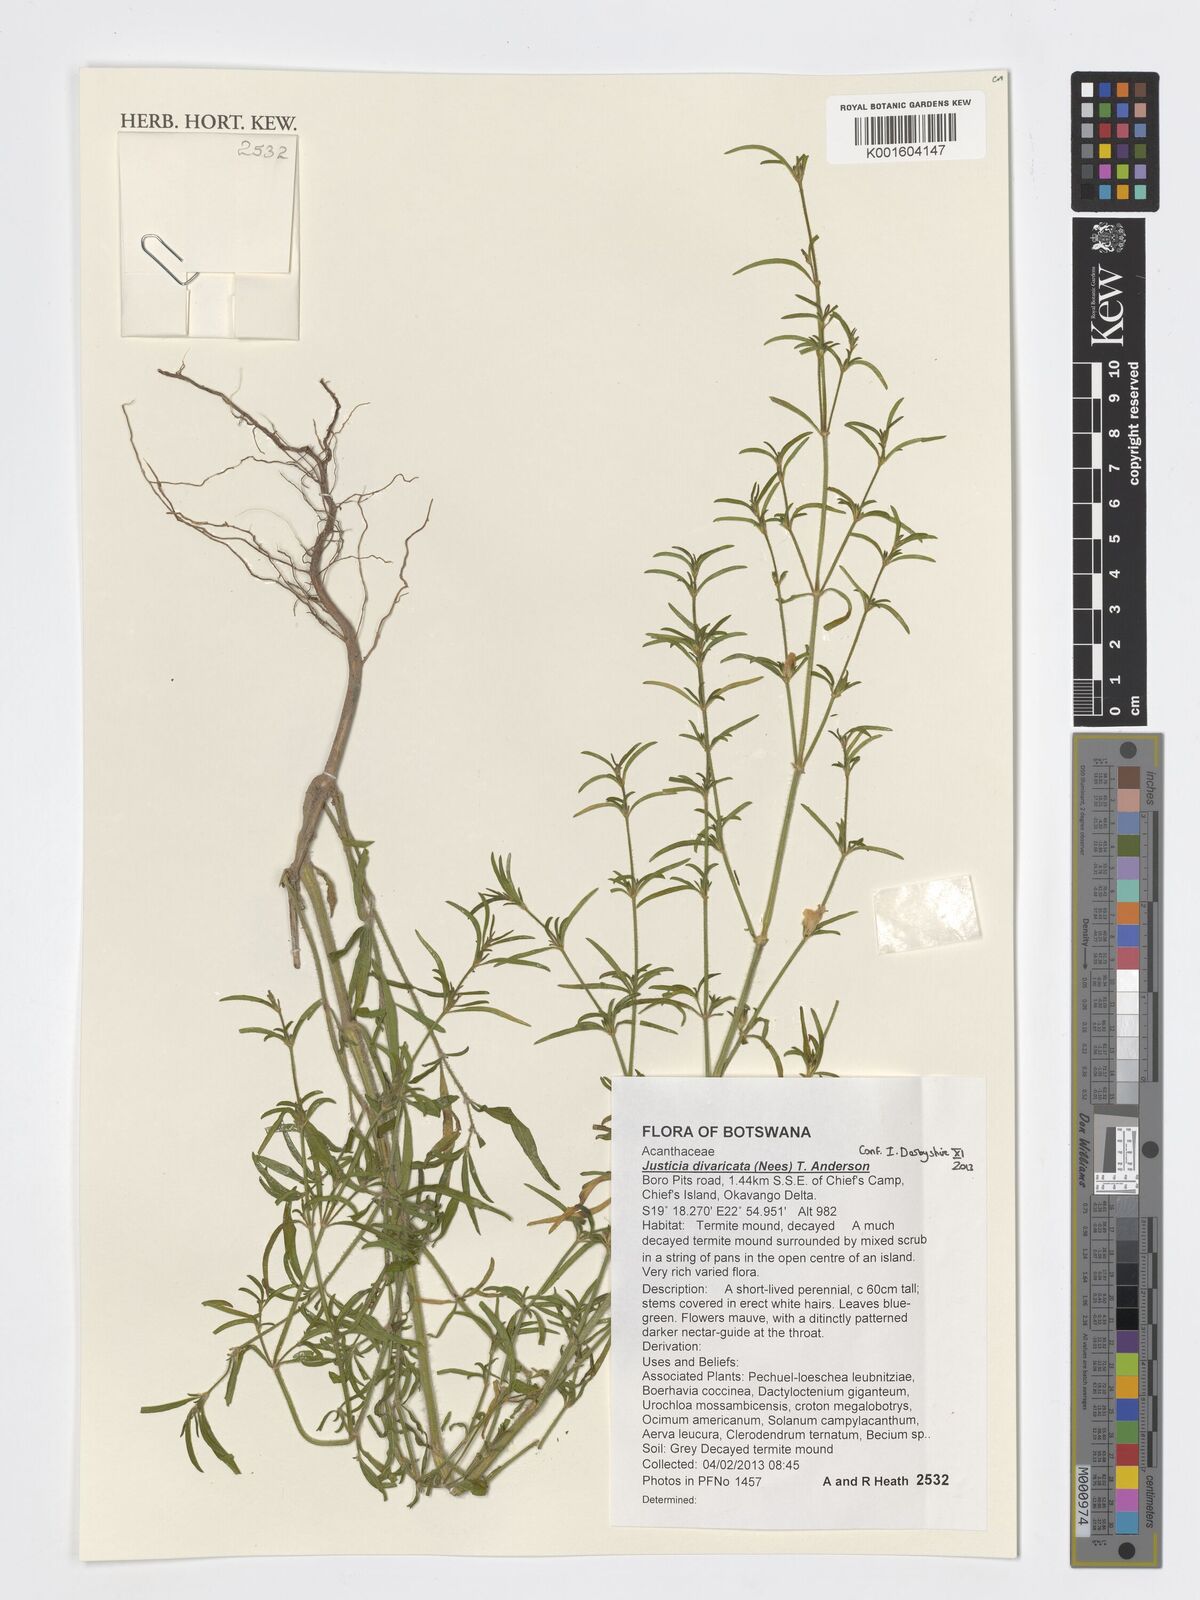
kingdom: Plantae
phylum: Tracheophyta
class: Magnoliopsida
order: Lamiales
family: Acanthaceae
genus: Justicia
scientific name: Justicia capensis
